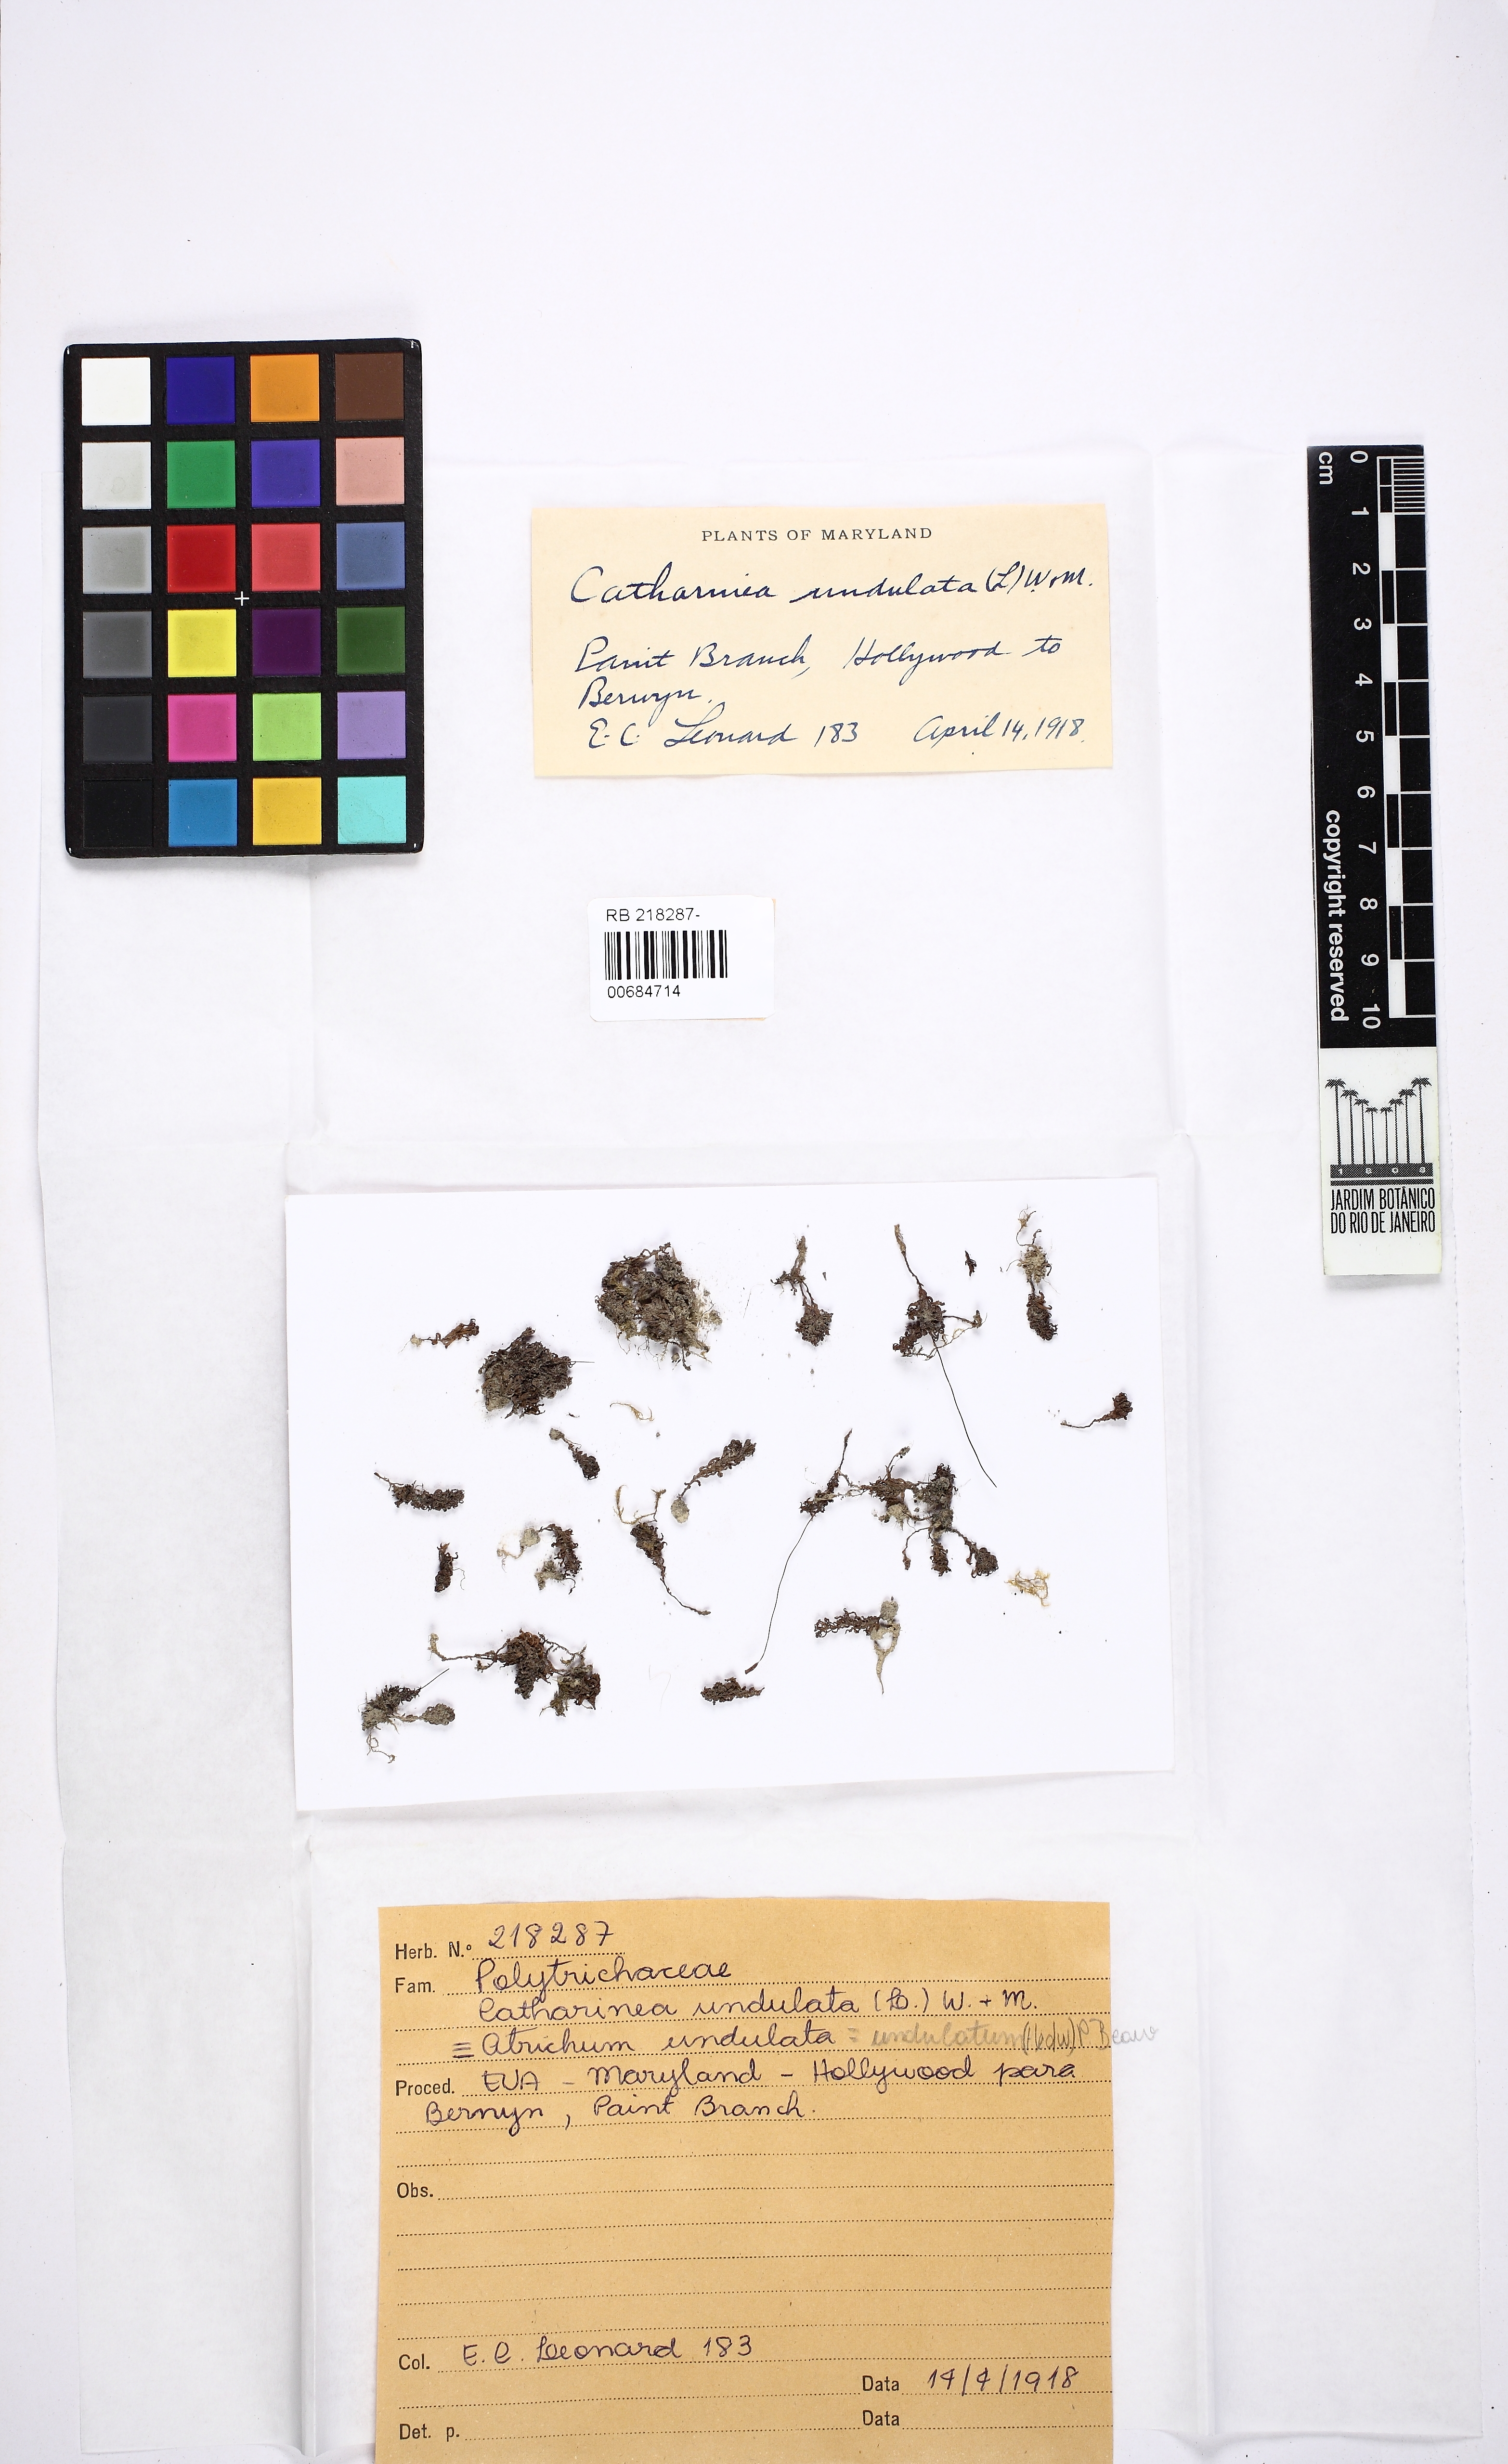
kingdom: Plantae
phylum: Bryophyta
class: Polytrichopsida
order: Polytrichales
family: Polytrichaceae
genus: Atrichum
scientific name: Atrichum undulatum
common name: Common smoothcap
